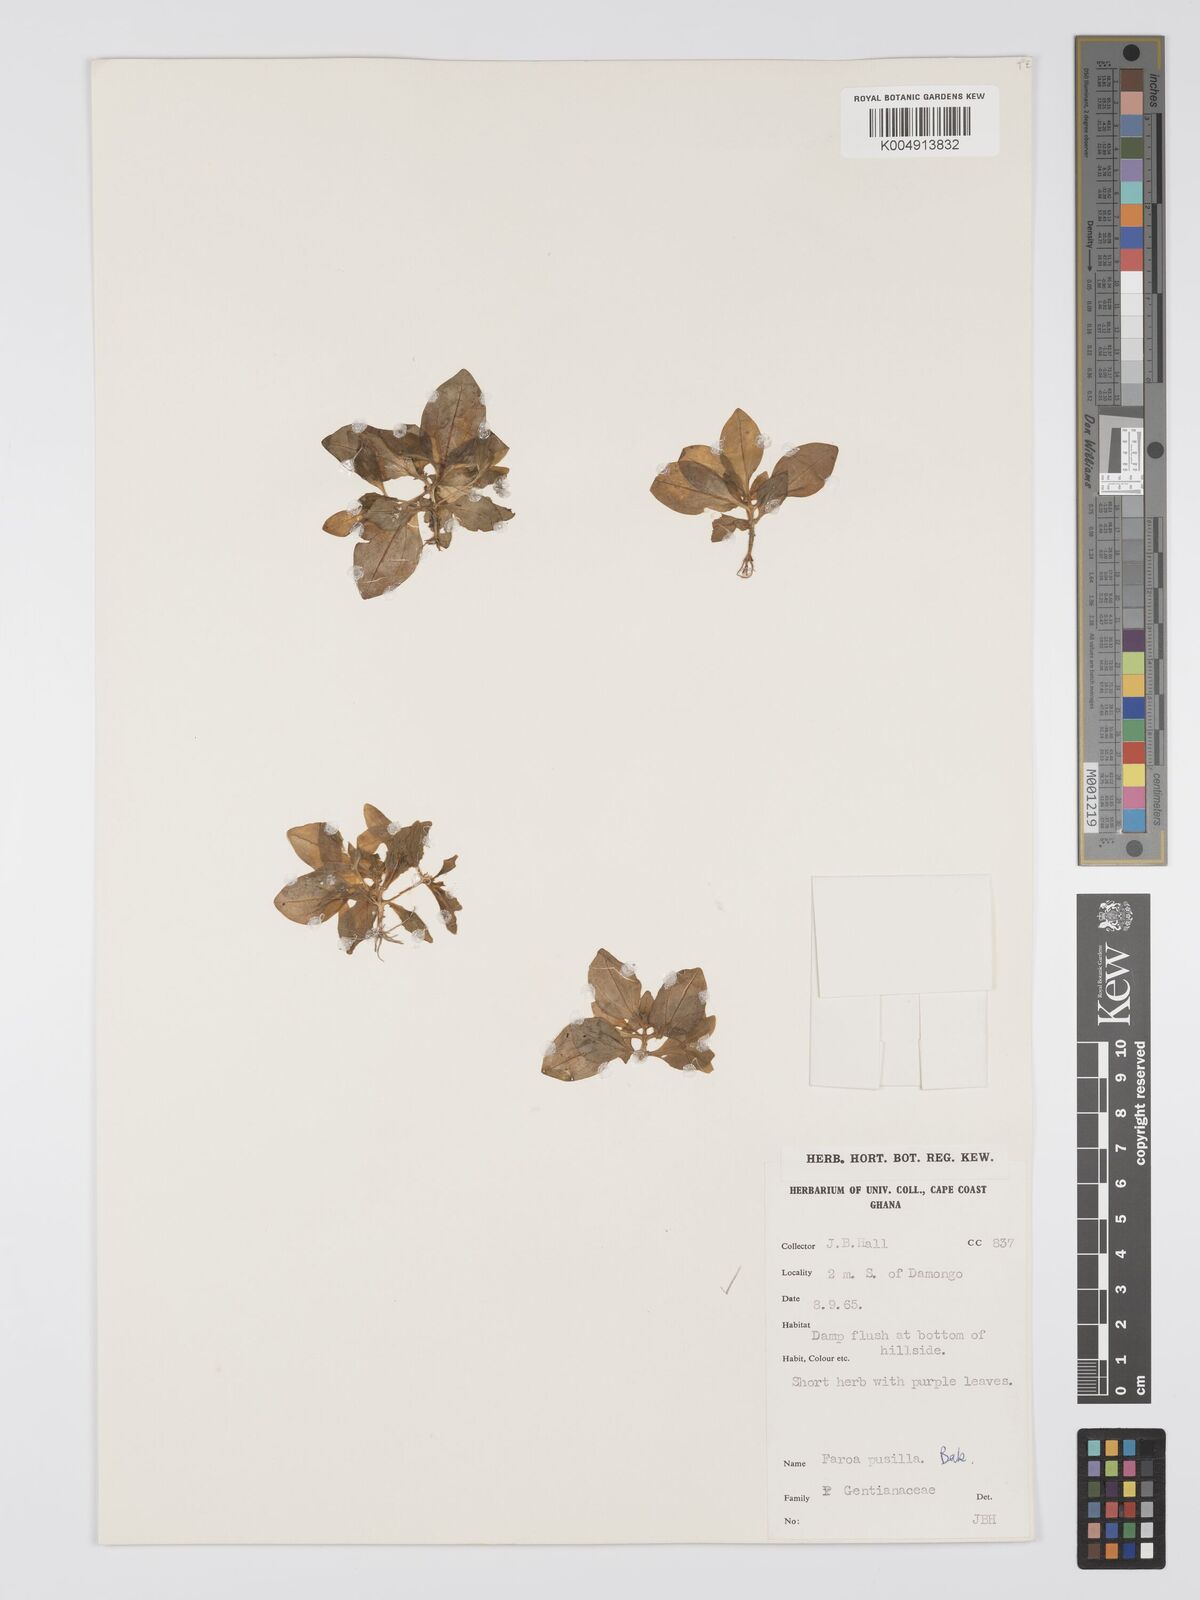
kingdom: Plantae
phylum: Tracheophyta
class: Magnoliopsida
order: Gentianales
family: Gentianaceae
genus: Faroa
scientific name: Faroa pusilla
